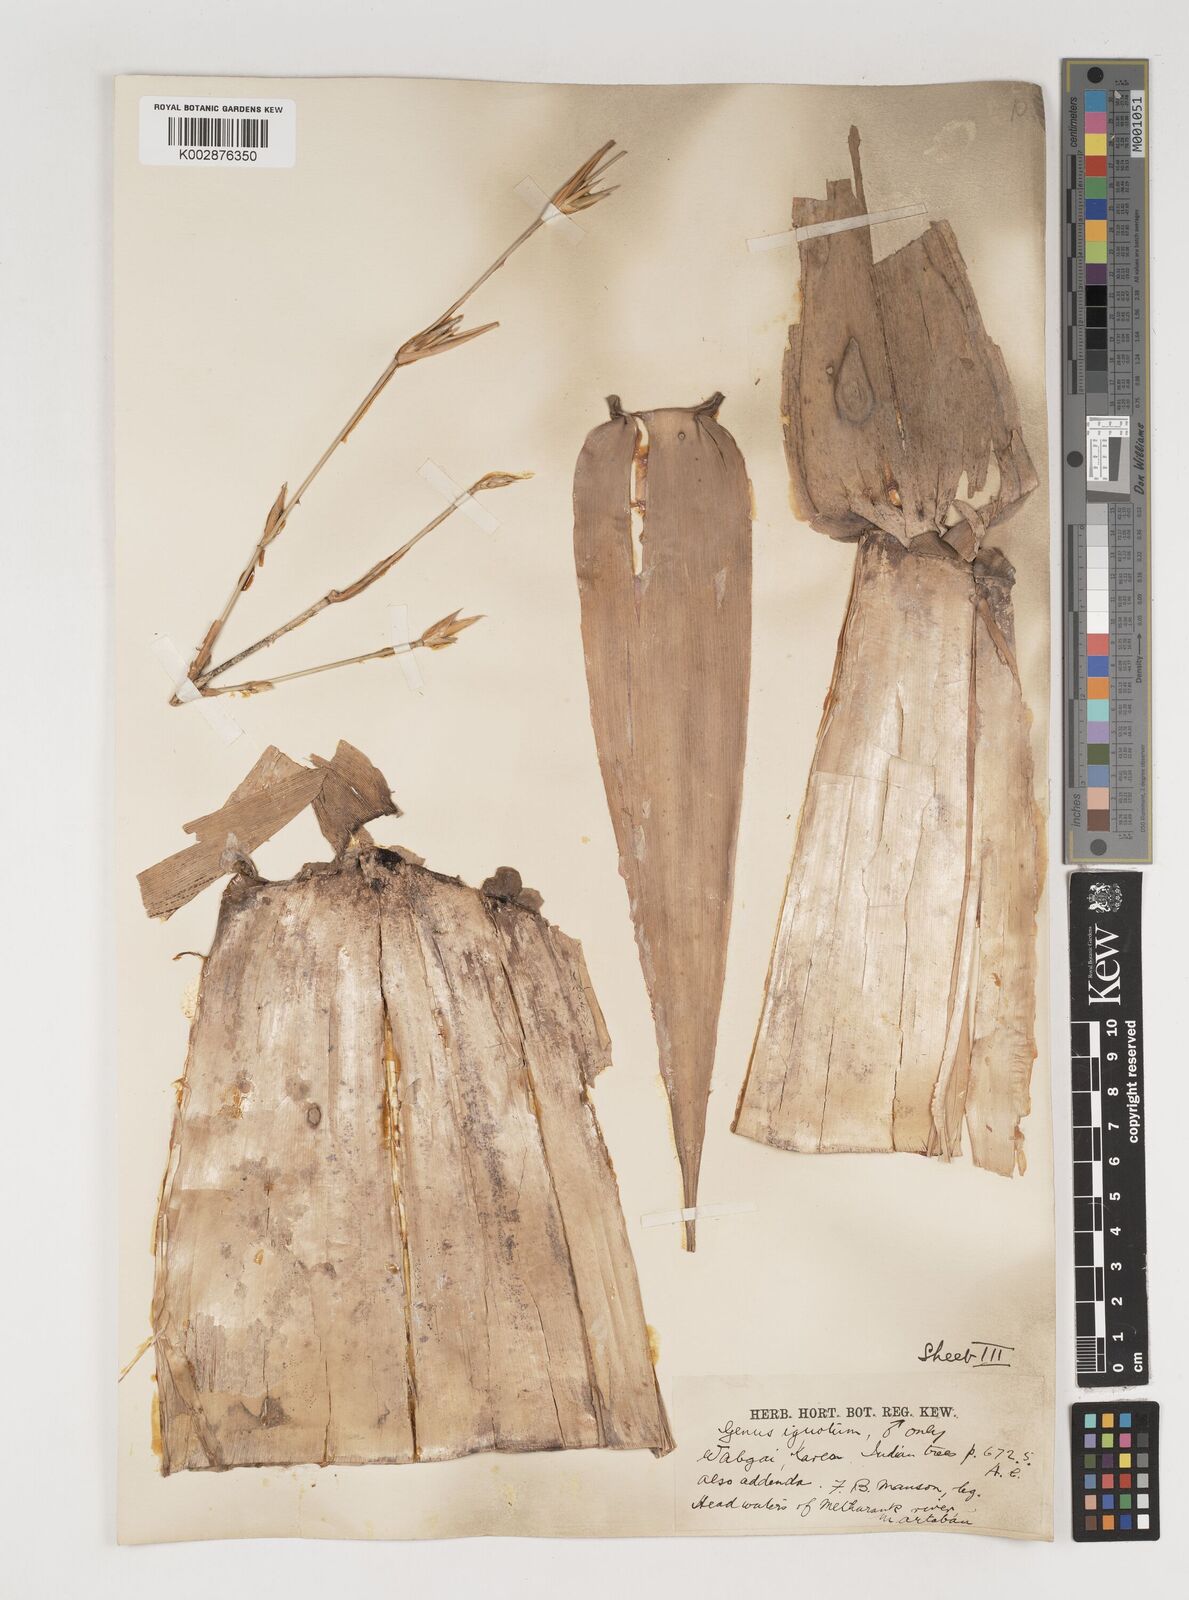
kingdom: Plantae
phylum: Tracheophyta
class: Liliopsida
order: Poales
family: Poaceae
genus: Bambusa
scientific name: Bambusa burmanica
